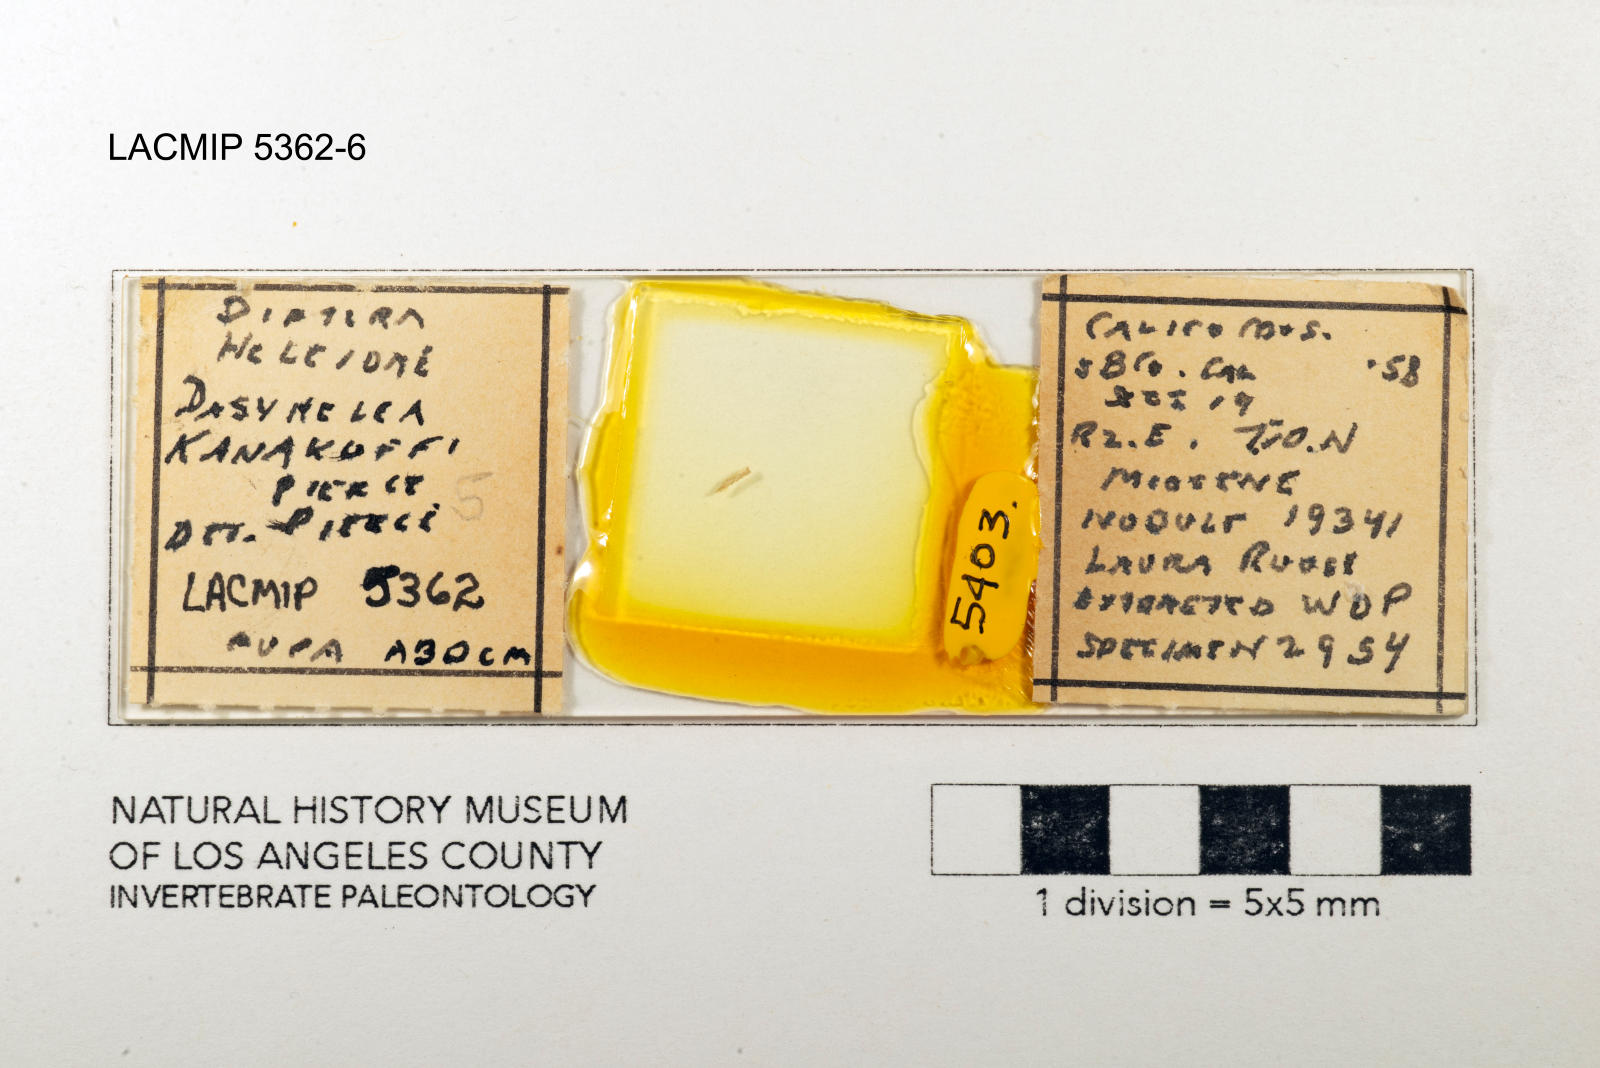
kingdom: Animalia
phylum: Arthropoda
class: Insecta
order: Diptera
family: Ceratopogonidae
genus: Dasyhelea
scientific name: Dasyhelea kanakoffi
